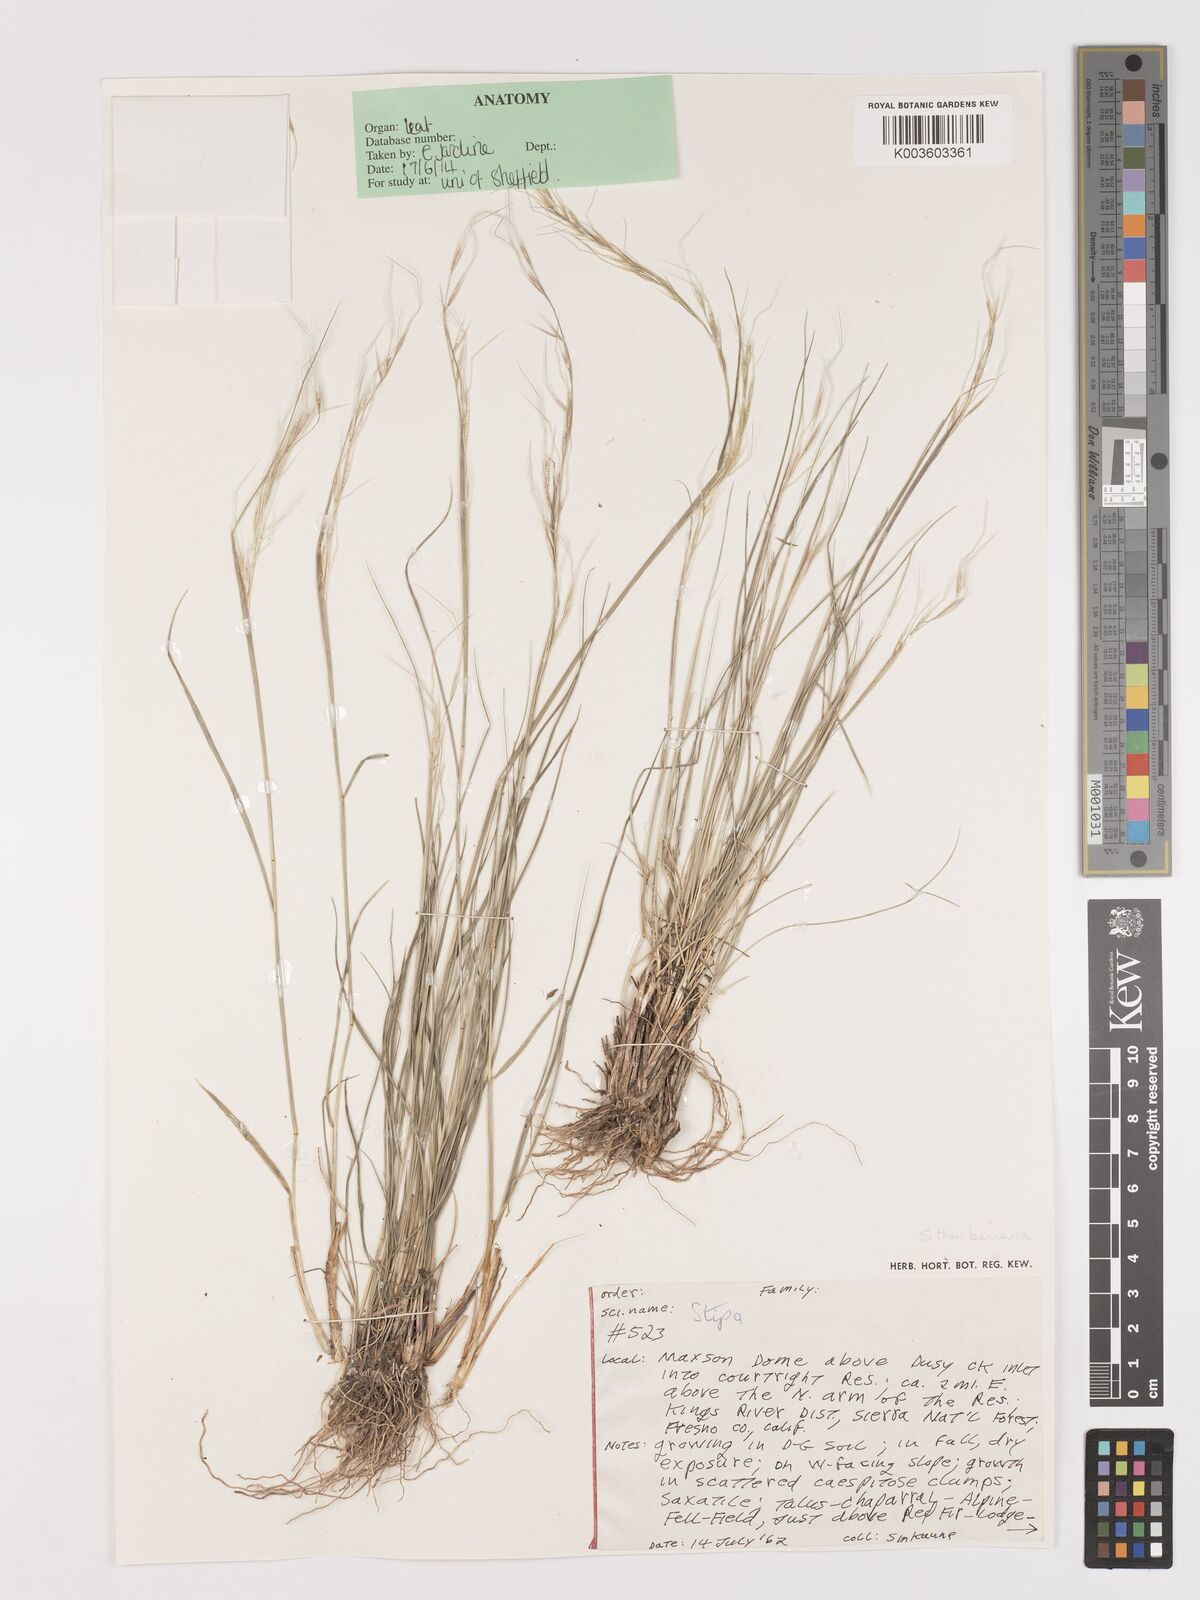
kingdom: Plantae
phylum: Tracheophyta
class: Liliopsida
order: Poales
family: Poaceae
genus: Eriocoma
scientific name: Eriocoma thurberiana
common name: Thurber's needlegrass
